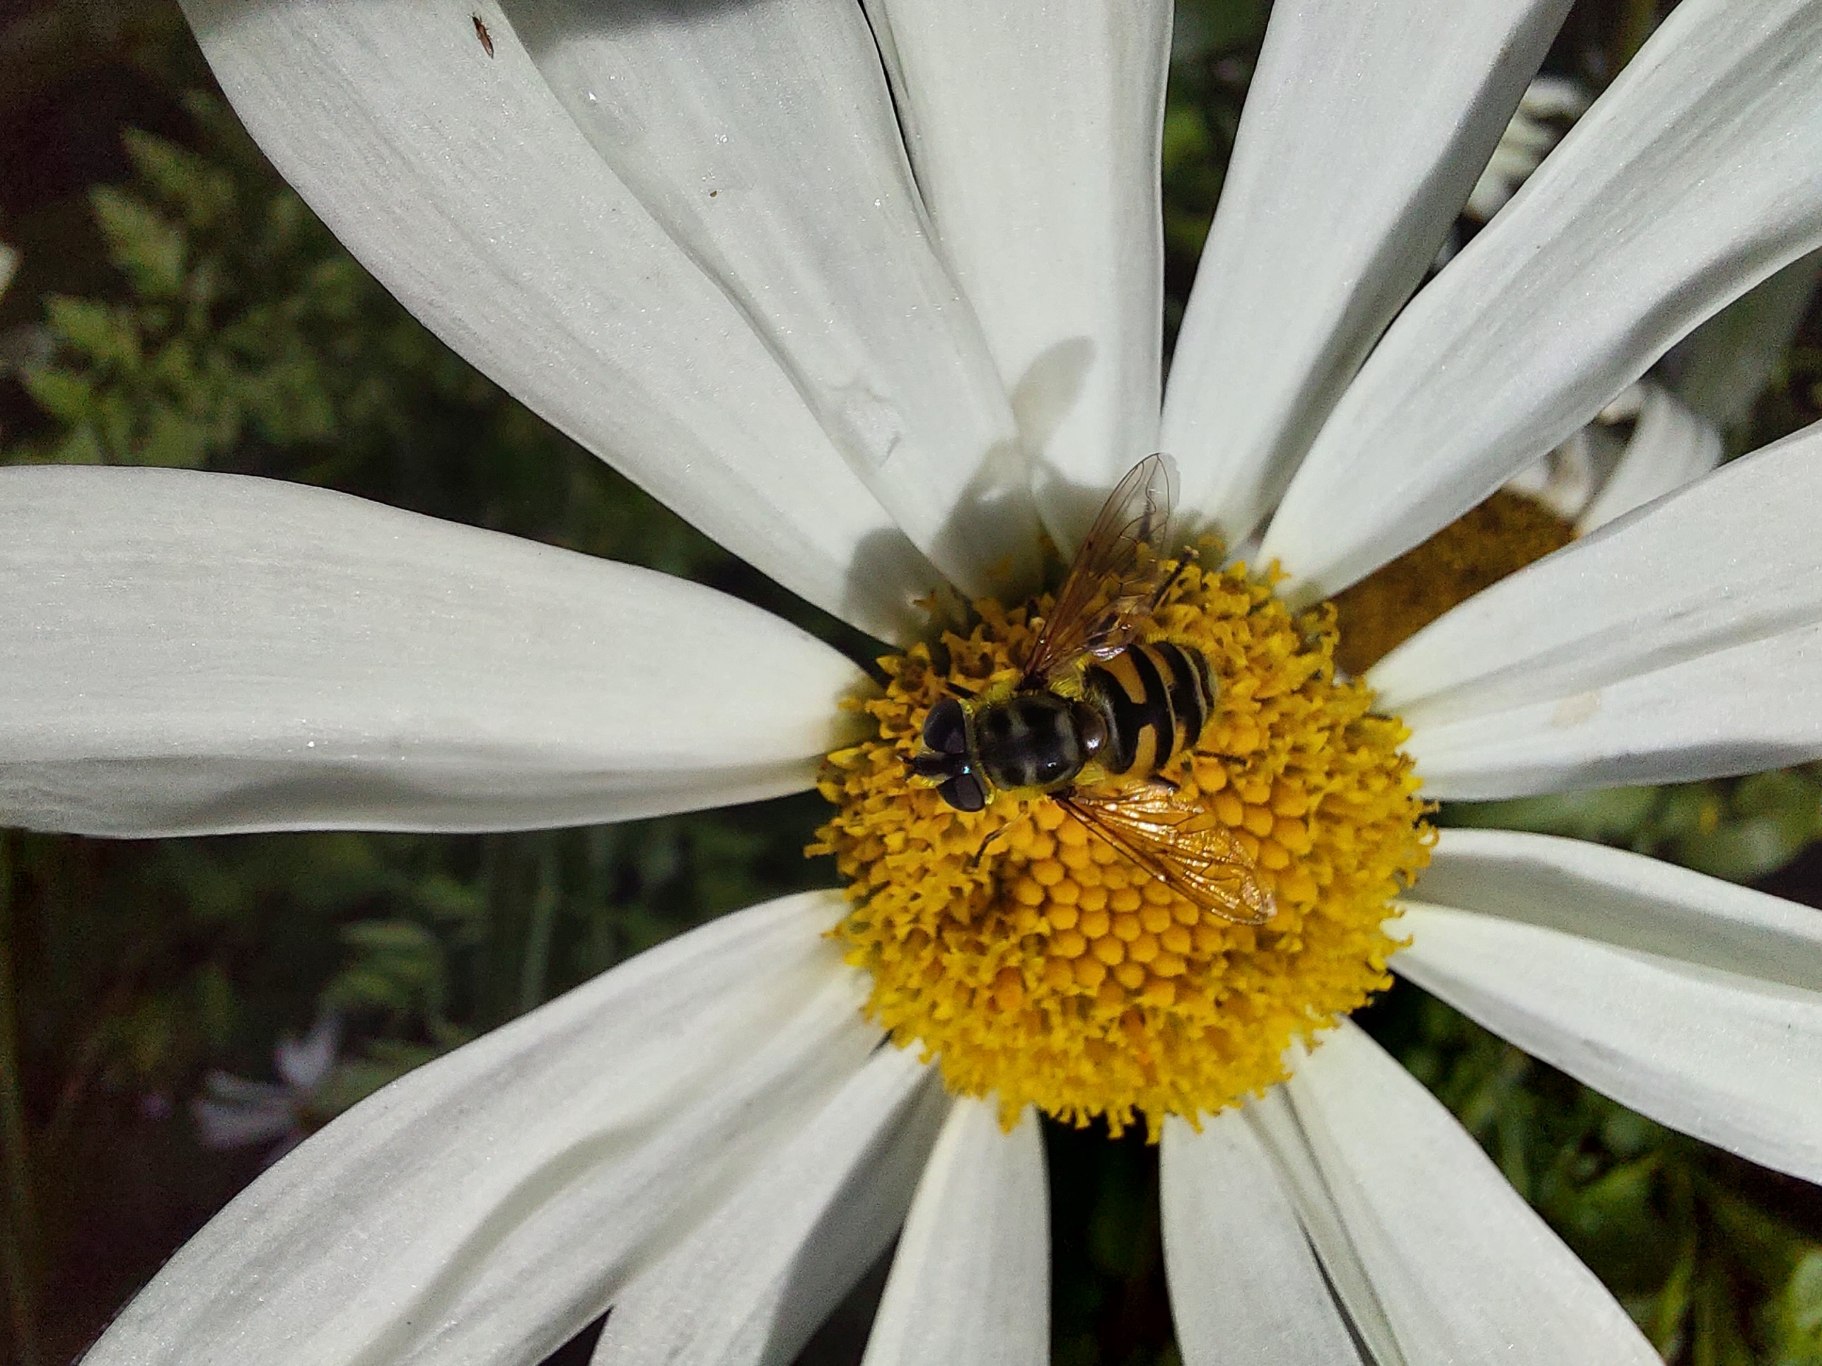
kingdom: Animalia
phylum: Arthropoda
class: Insecta
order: Diptera
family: Syrphidae
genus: Myathropa
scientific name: Myathropa florea
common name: Dødningehoved-svirreflue
